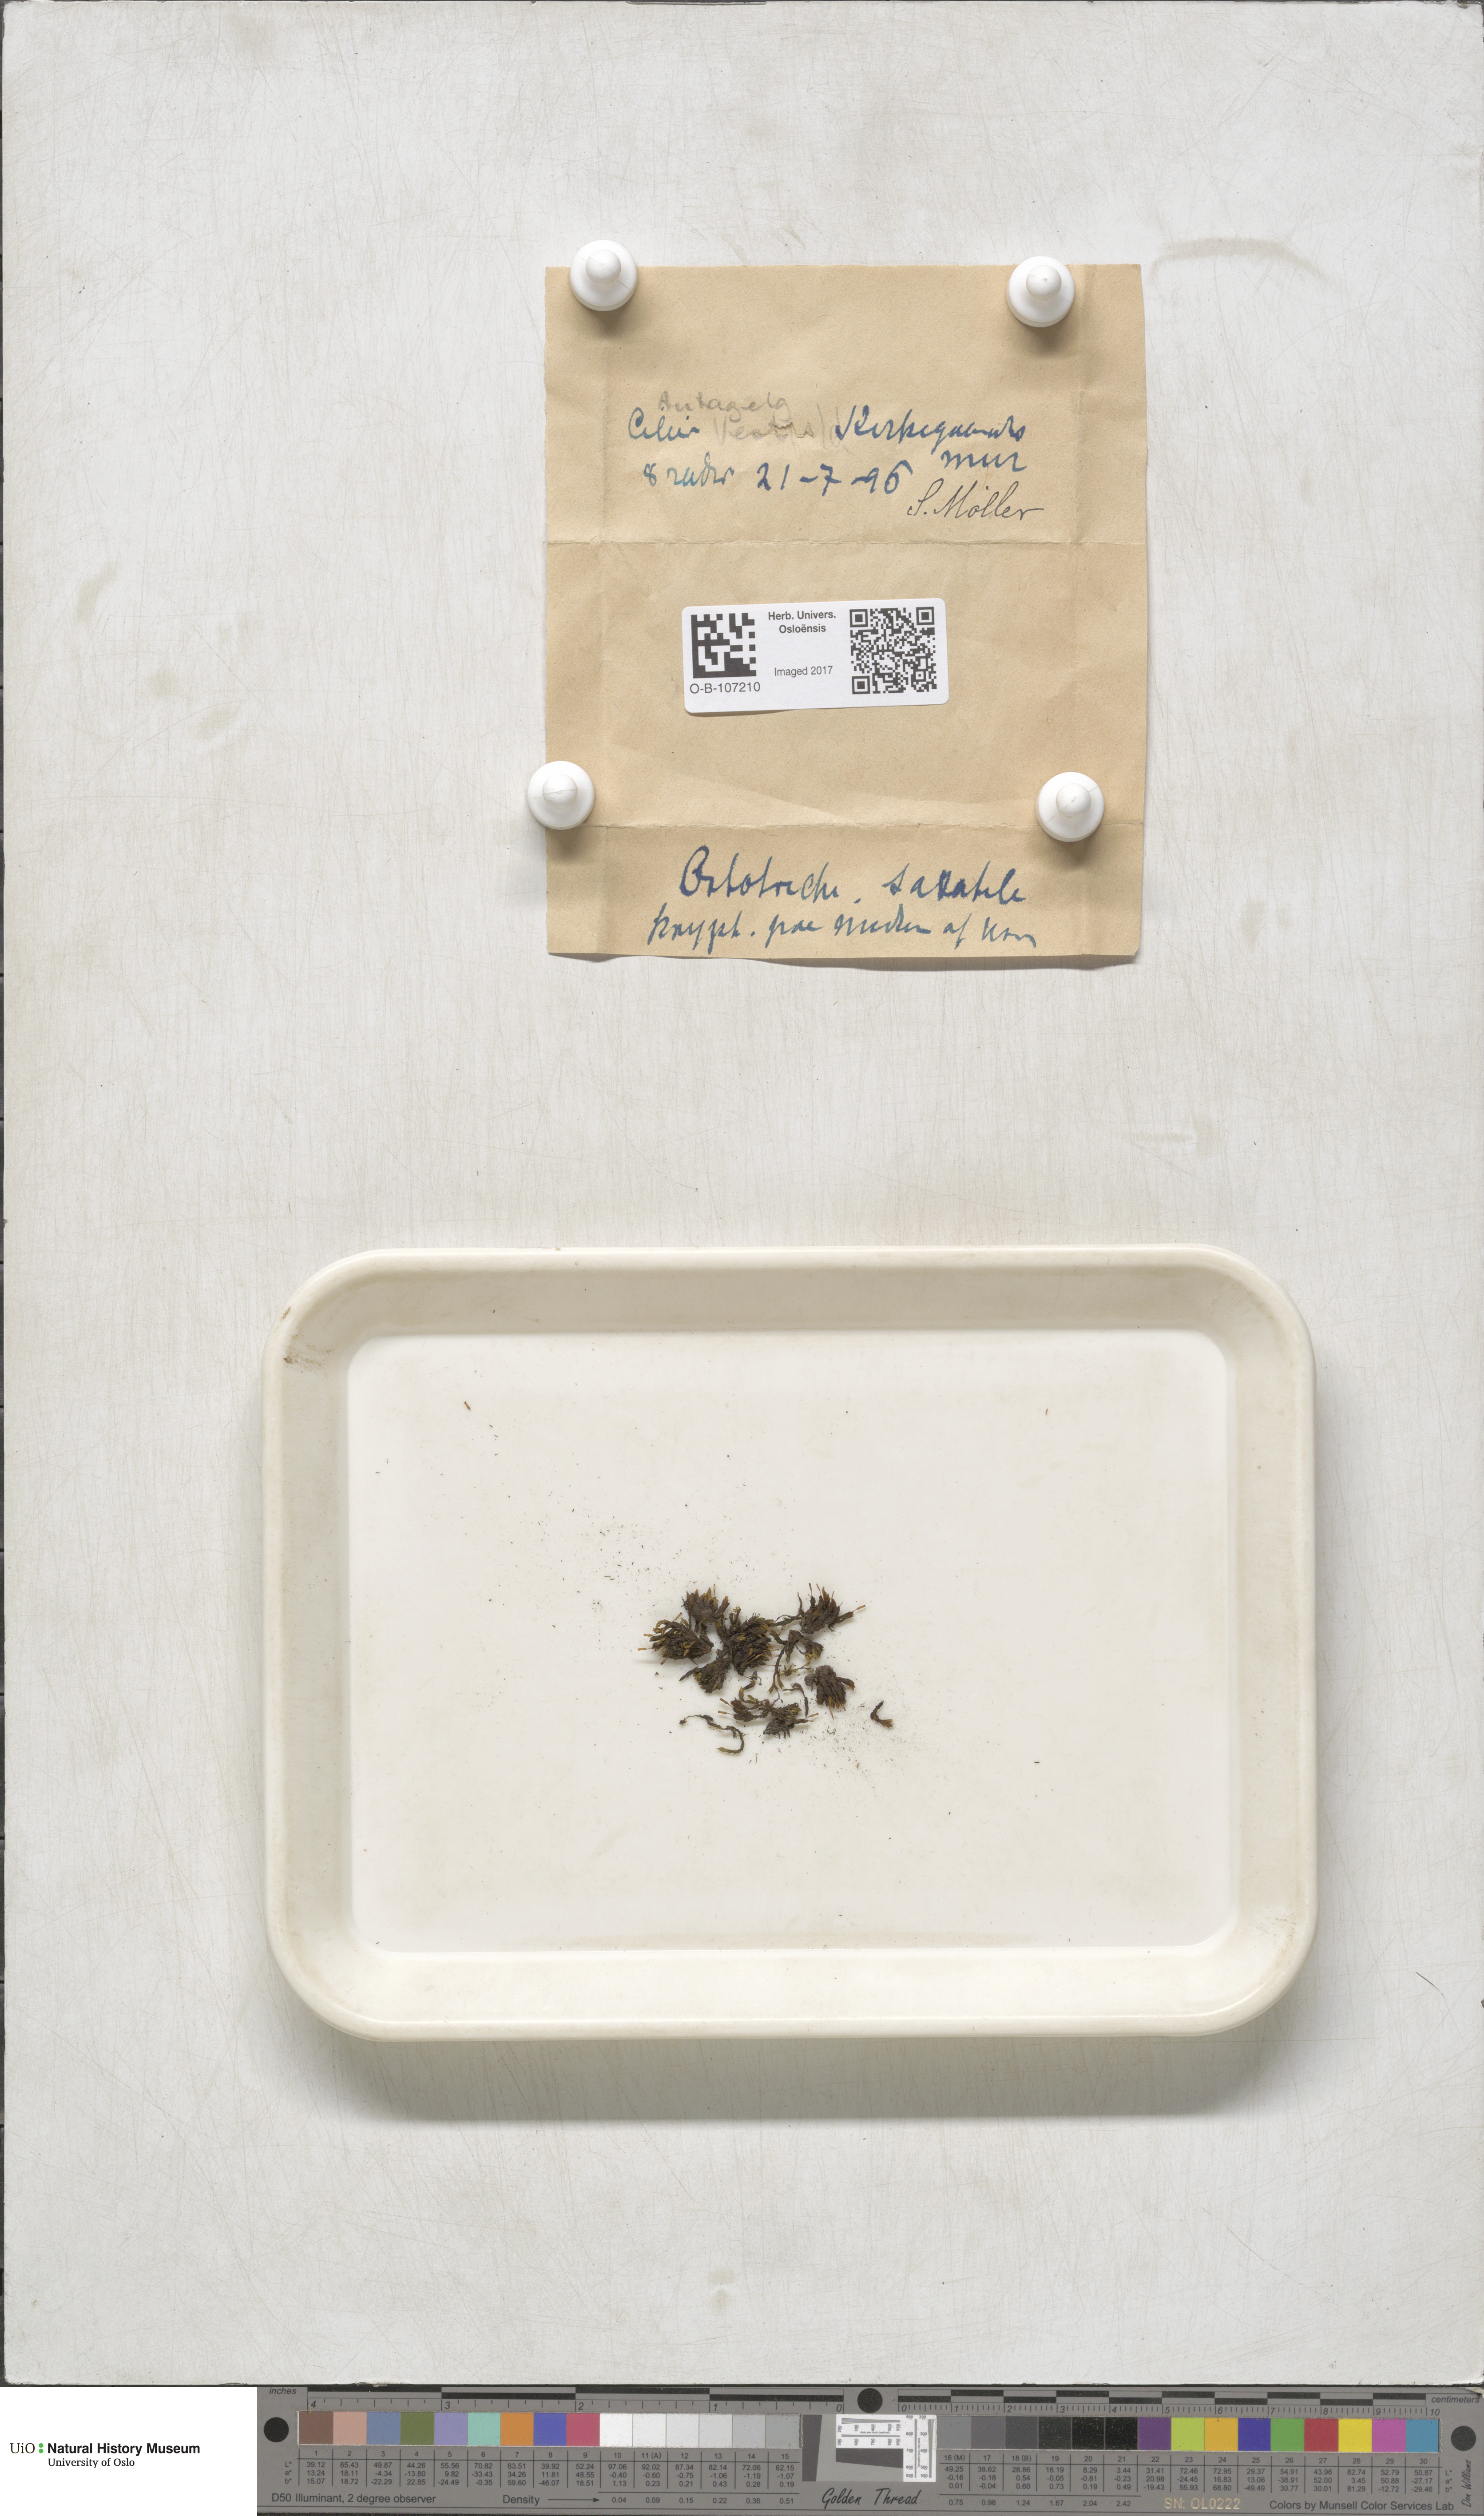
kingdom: Plantae
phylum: Bryophyta
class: Bryopsida
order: Orthotrichales
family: Orthotrichaceae
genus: Orthotrichum
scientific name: Orthotrichum anomalum
